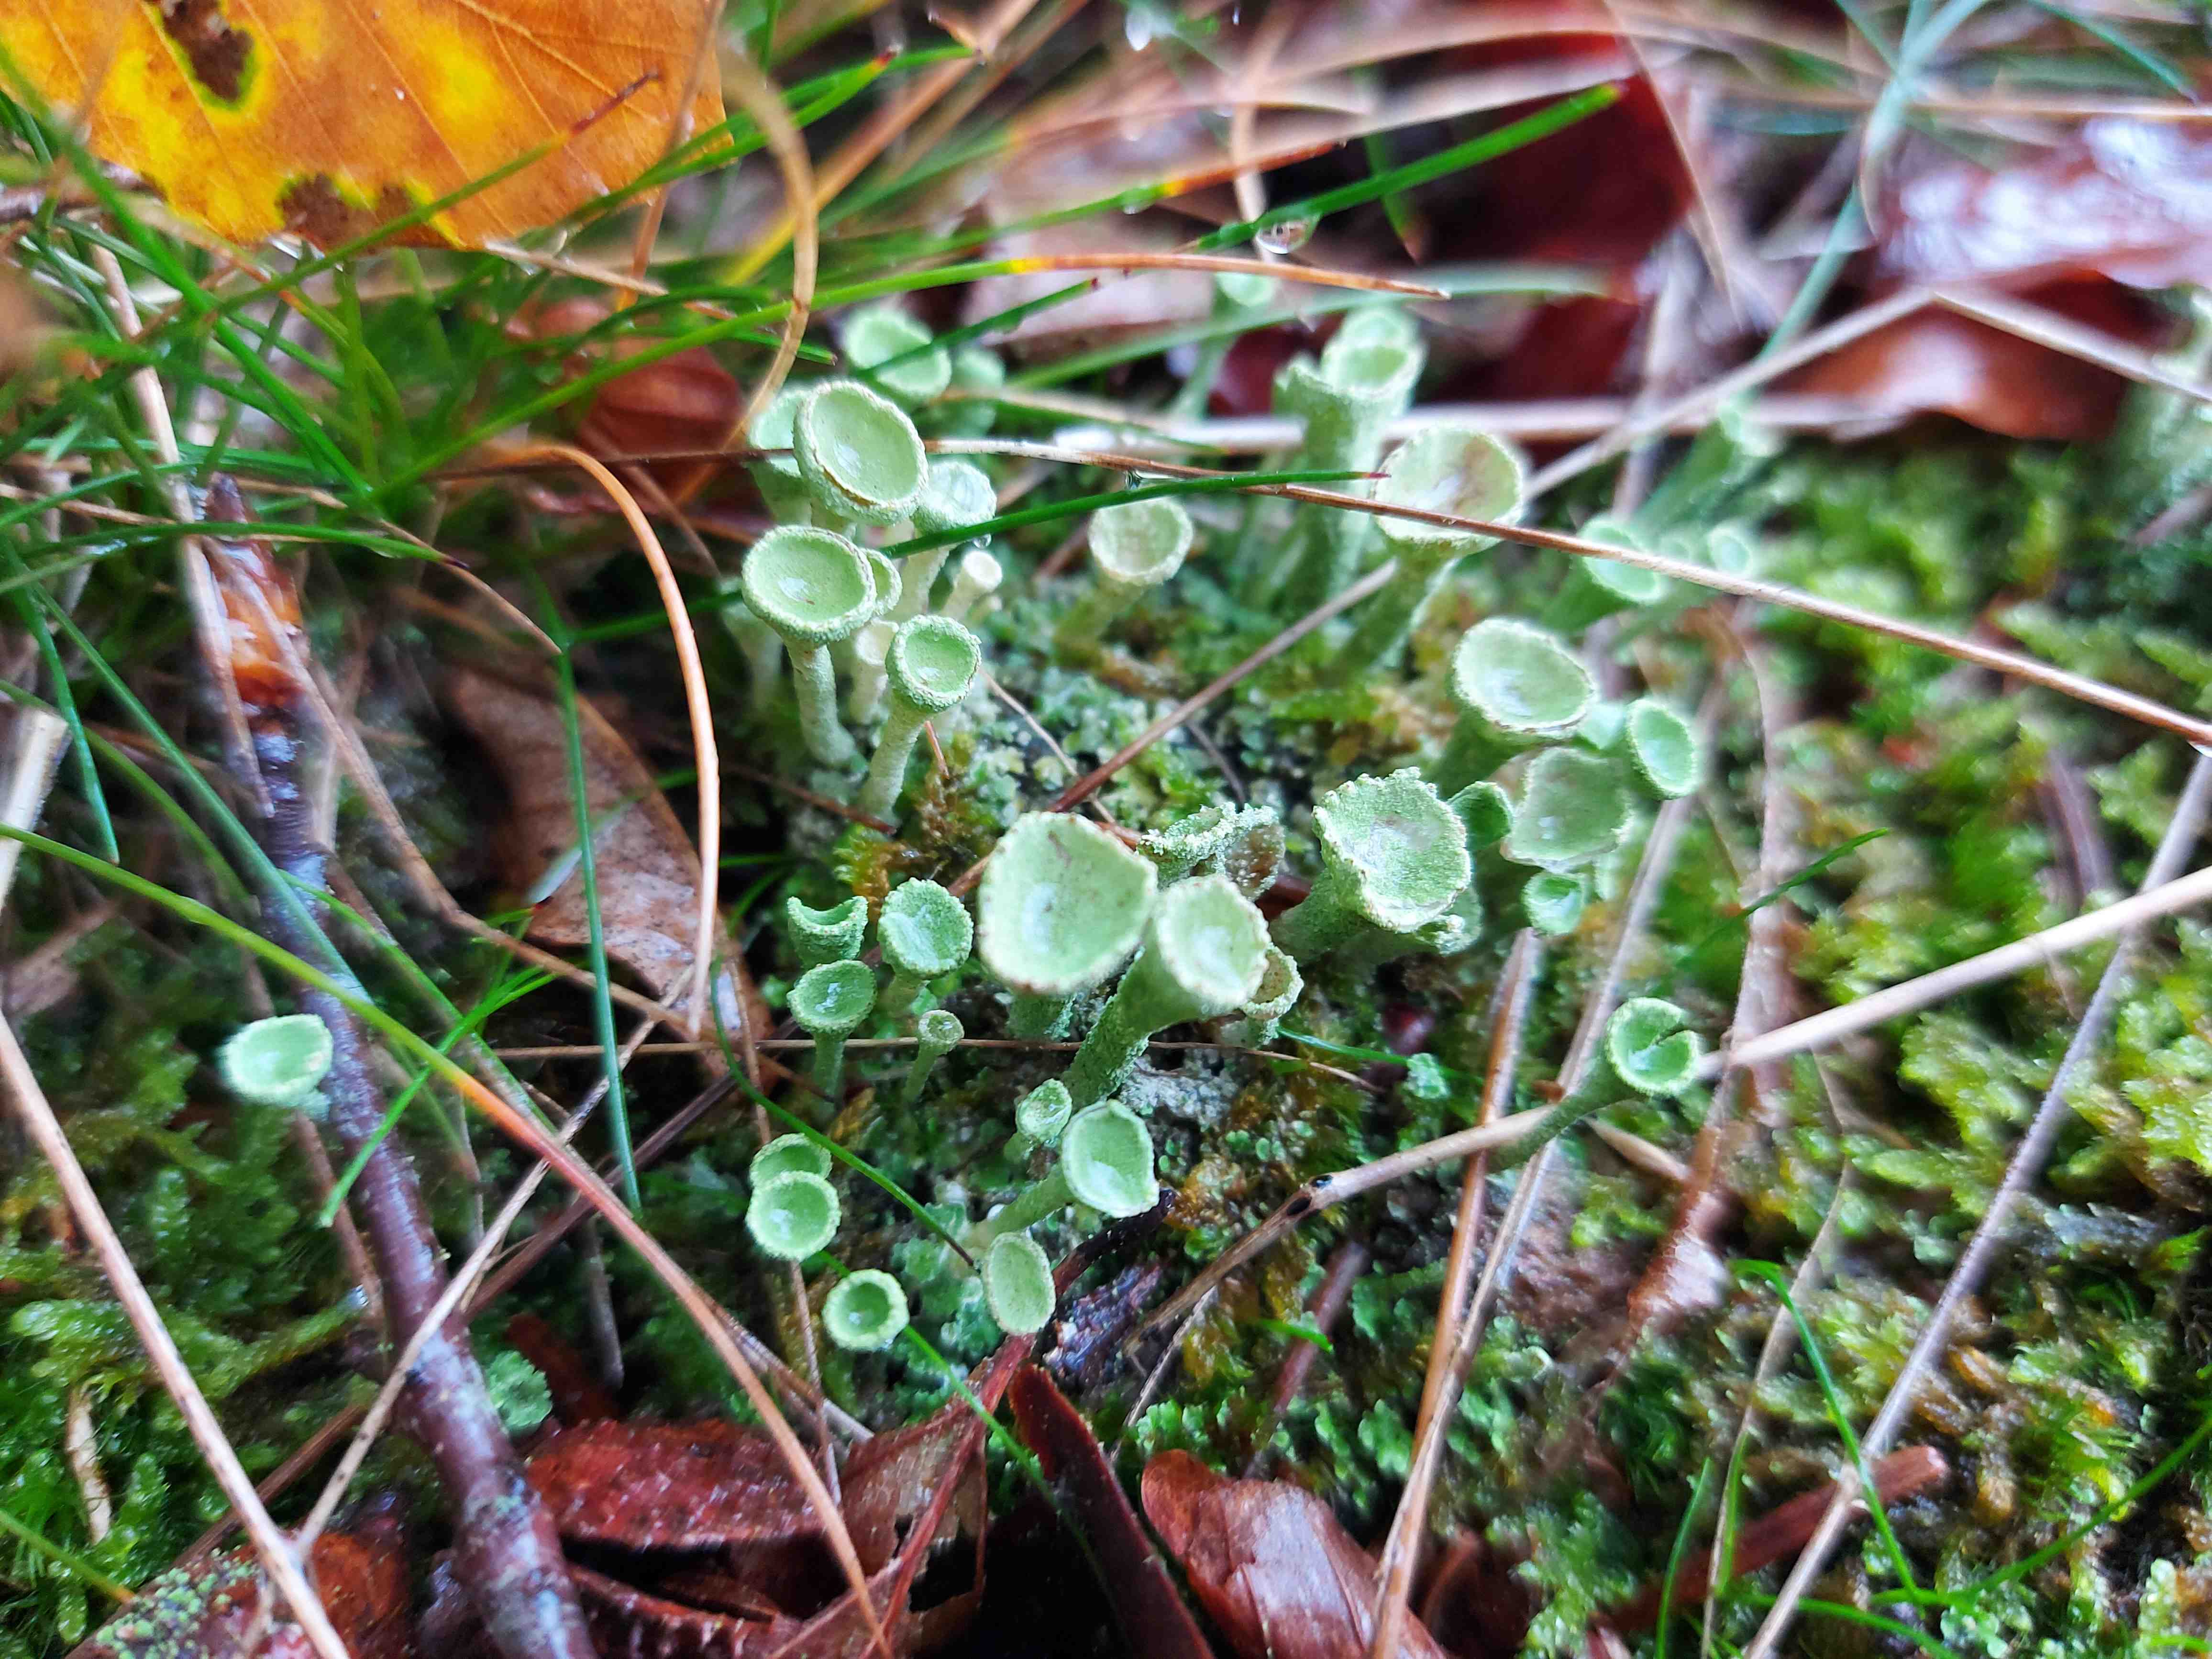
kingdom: Fungi
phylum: Ascomycota
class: Lecanoromycetes
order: Lecanorales
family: Cladoniaceae
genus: Cladonia
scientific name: Cladonia fimbriata
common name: bleggrøn bægerlav
